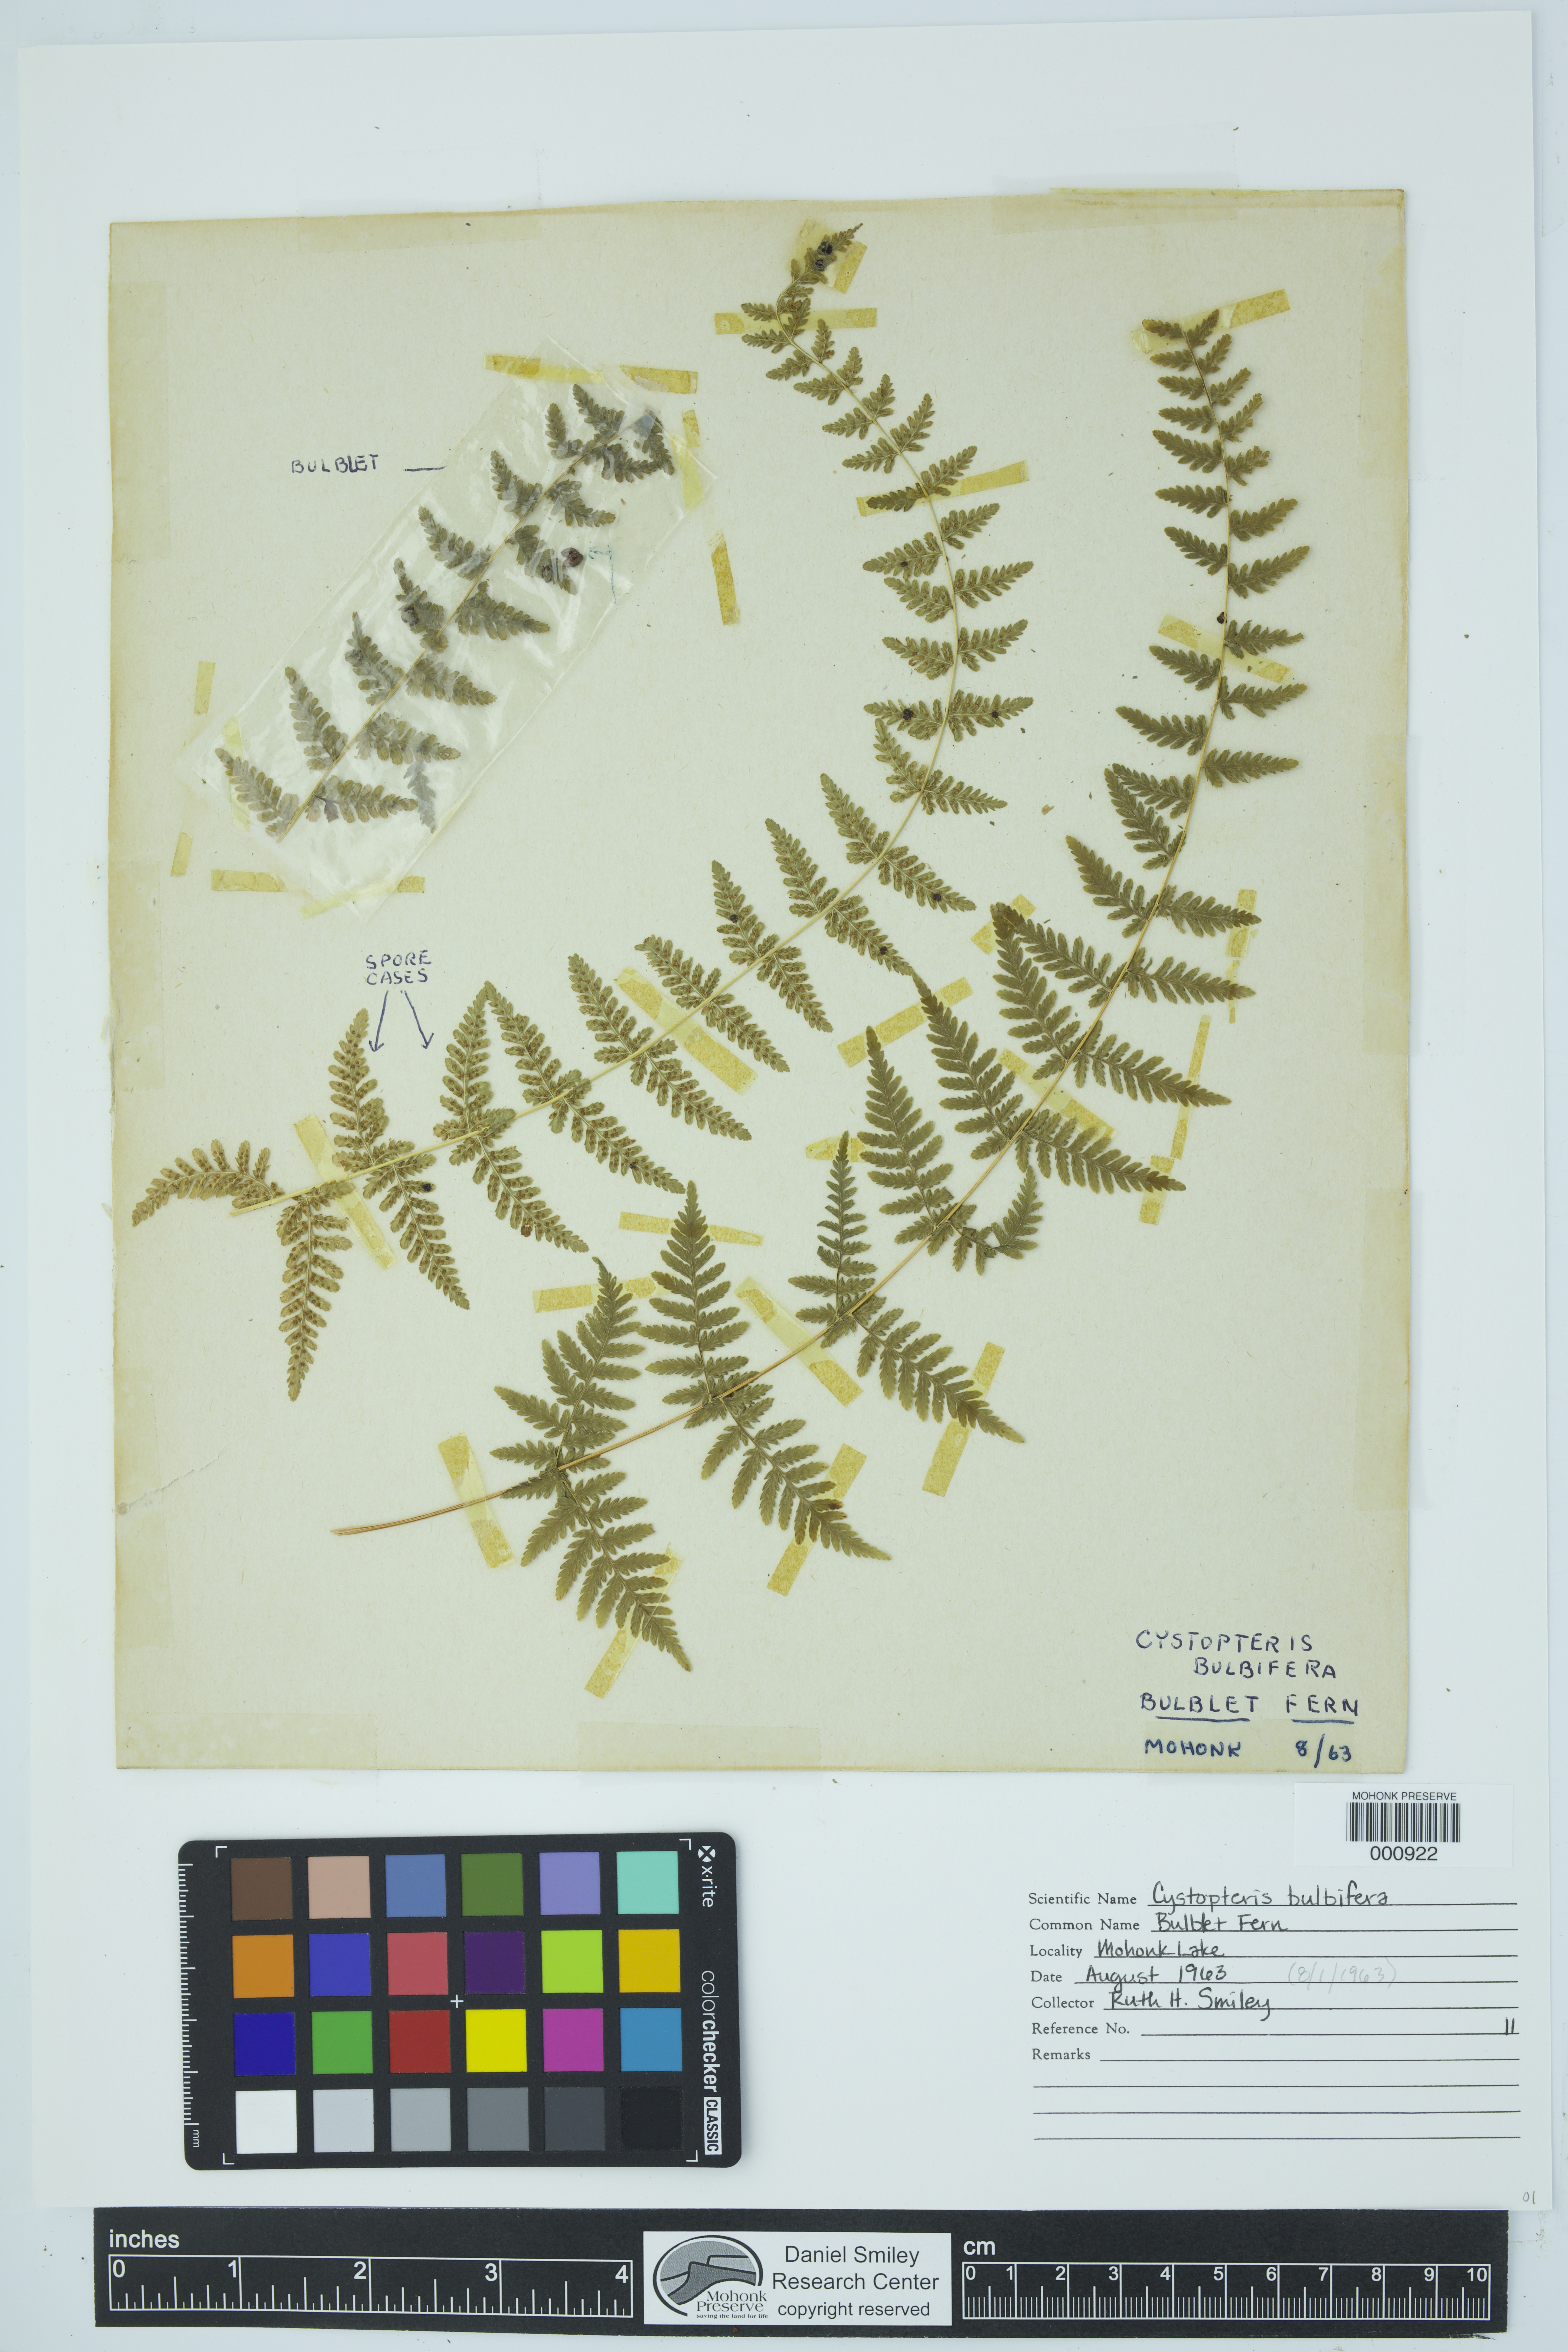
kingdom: Plantae
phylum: Tracheophyta
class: Polypodiopsida
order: Polypodiales
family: Cystopteridaceae
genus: Cystopteris
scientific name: Cystopteris bulbifera
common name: Bulblet bladder fern
